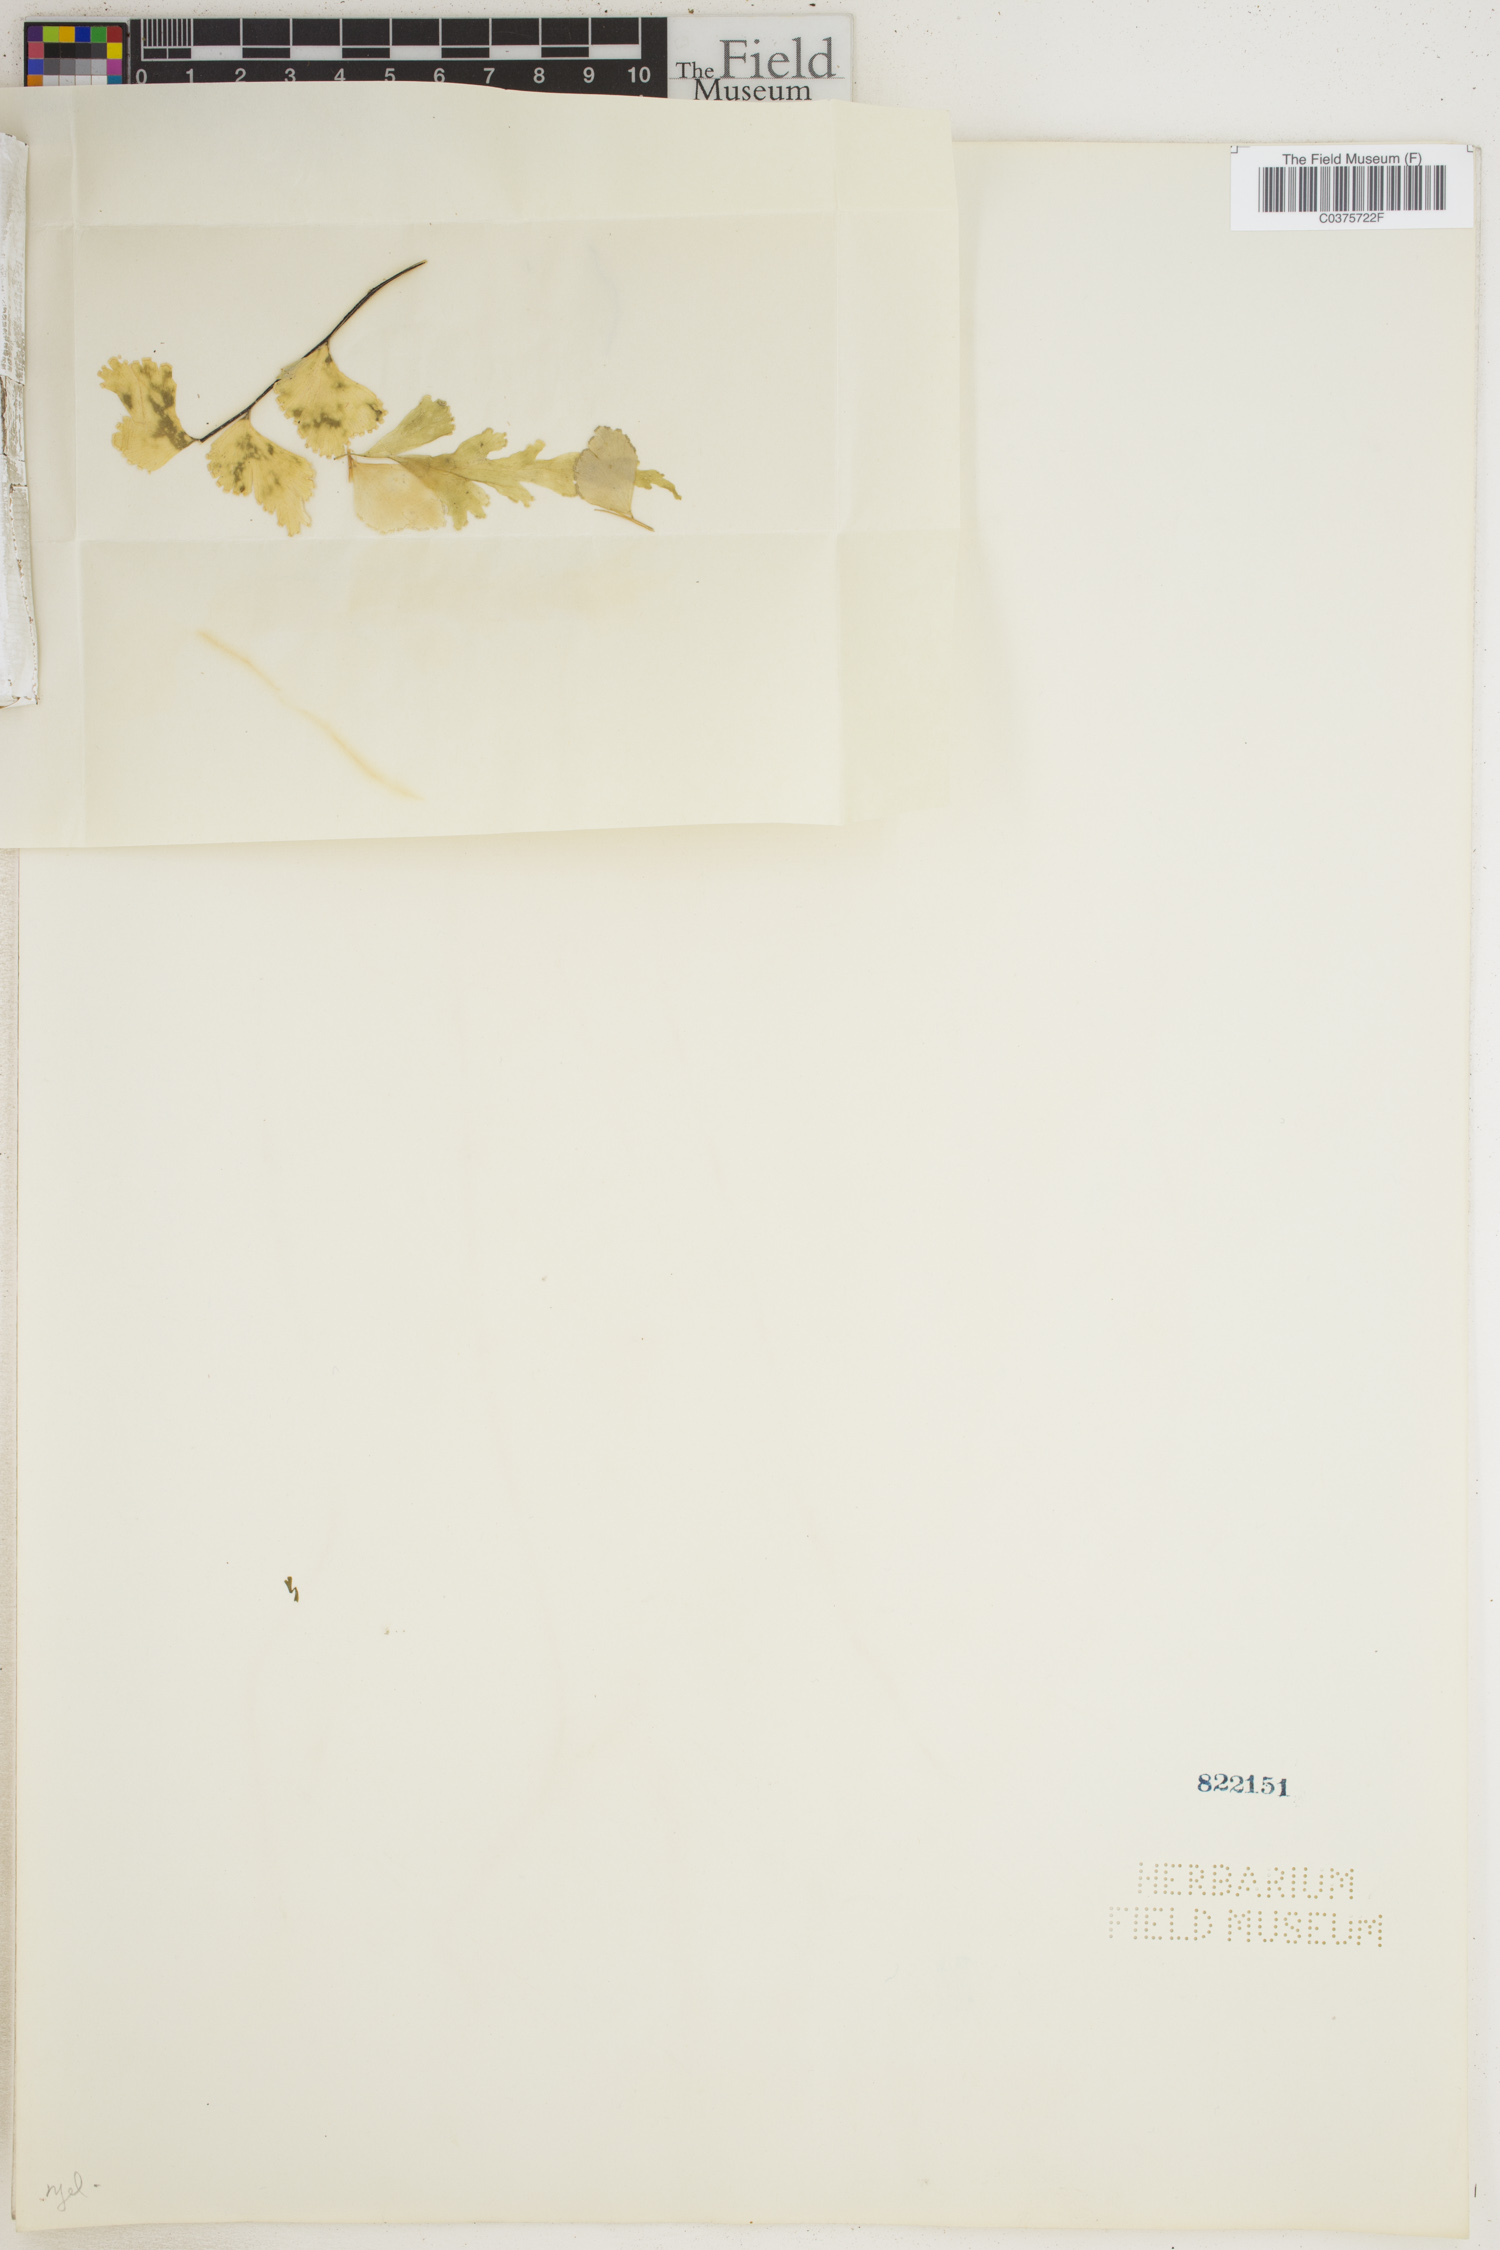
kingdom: Plantae
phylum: Tracheophyta
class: Polypodiopsida
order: Polypodiales
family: Lindsaeaceae
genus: Lindsaea
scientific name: Lindsaea leptophylla
